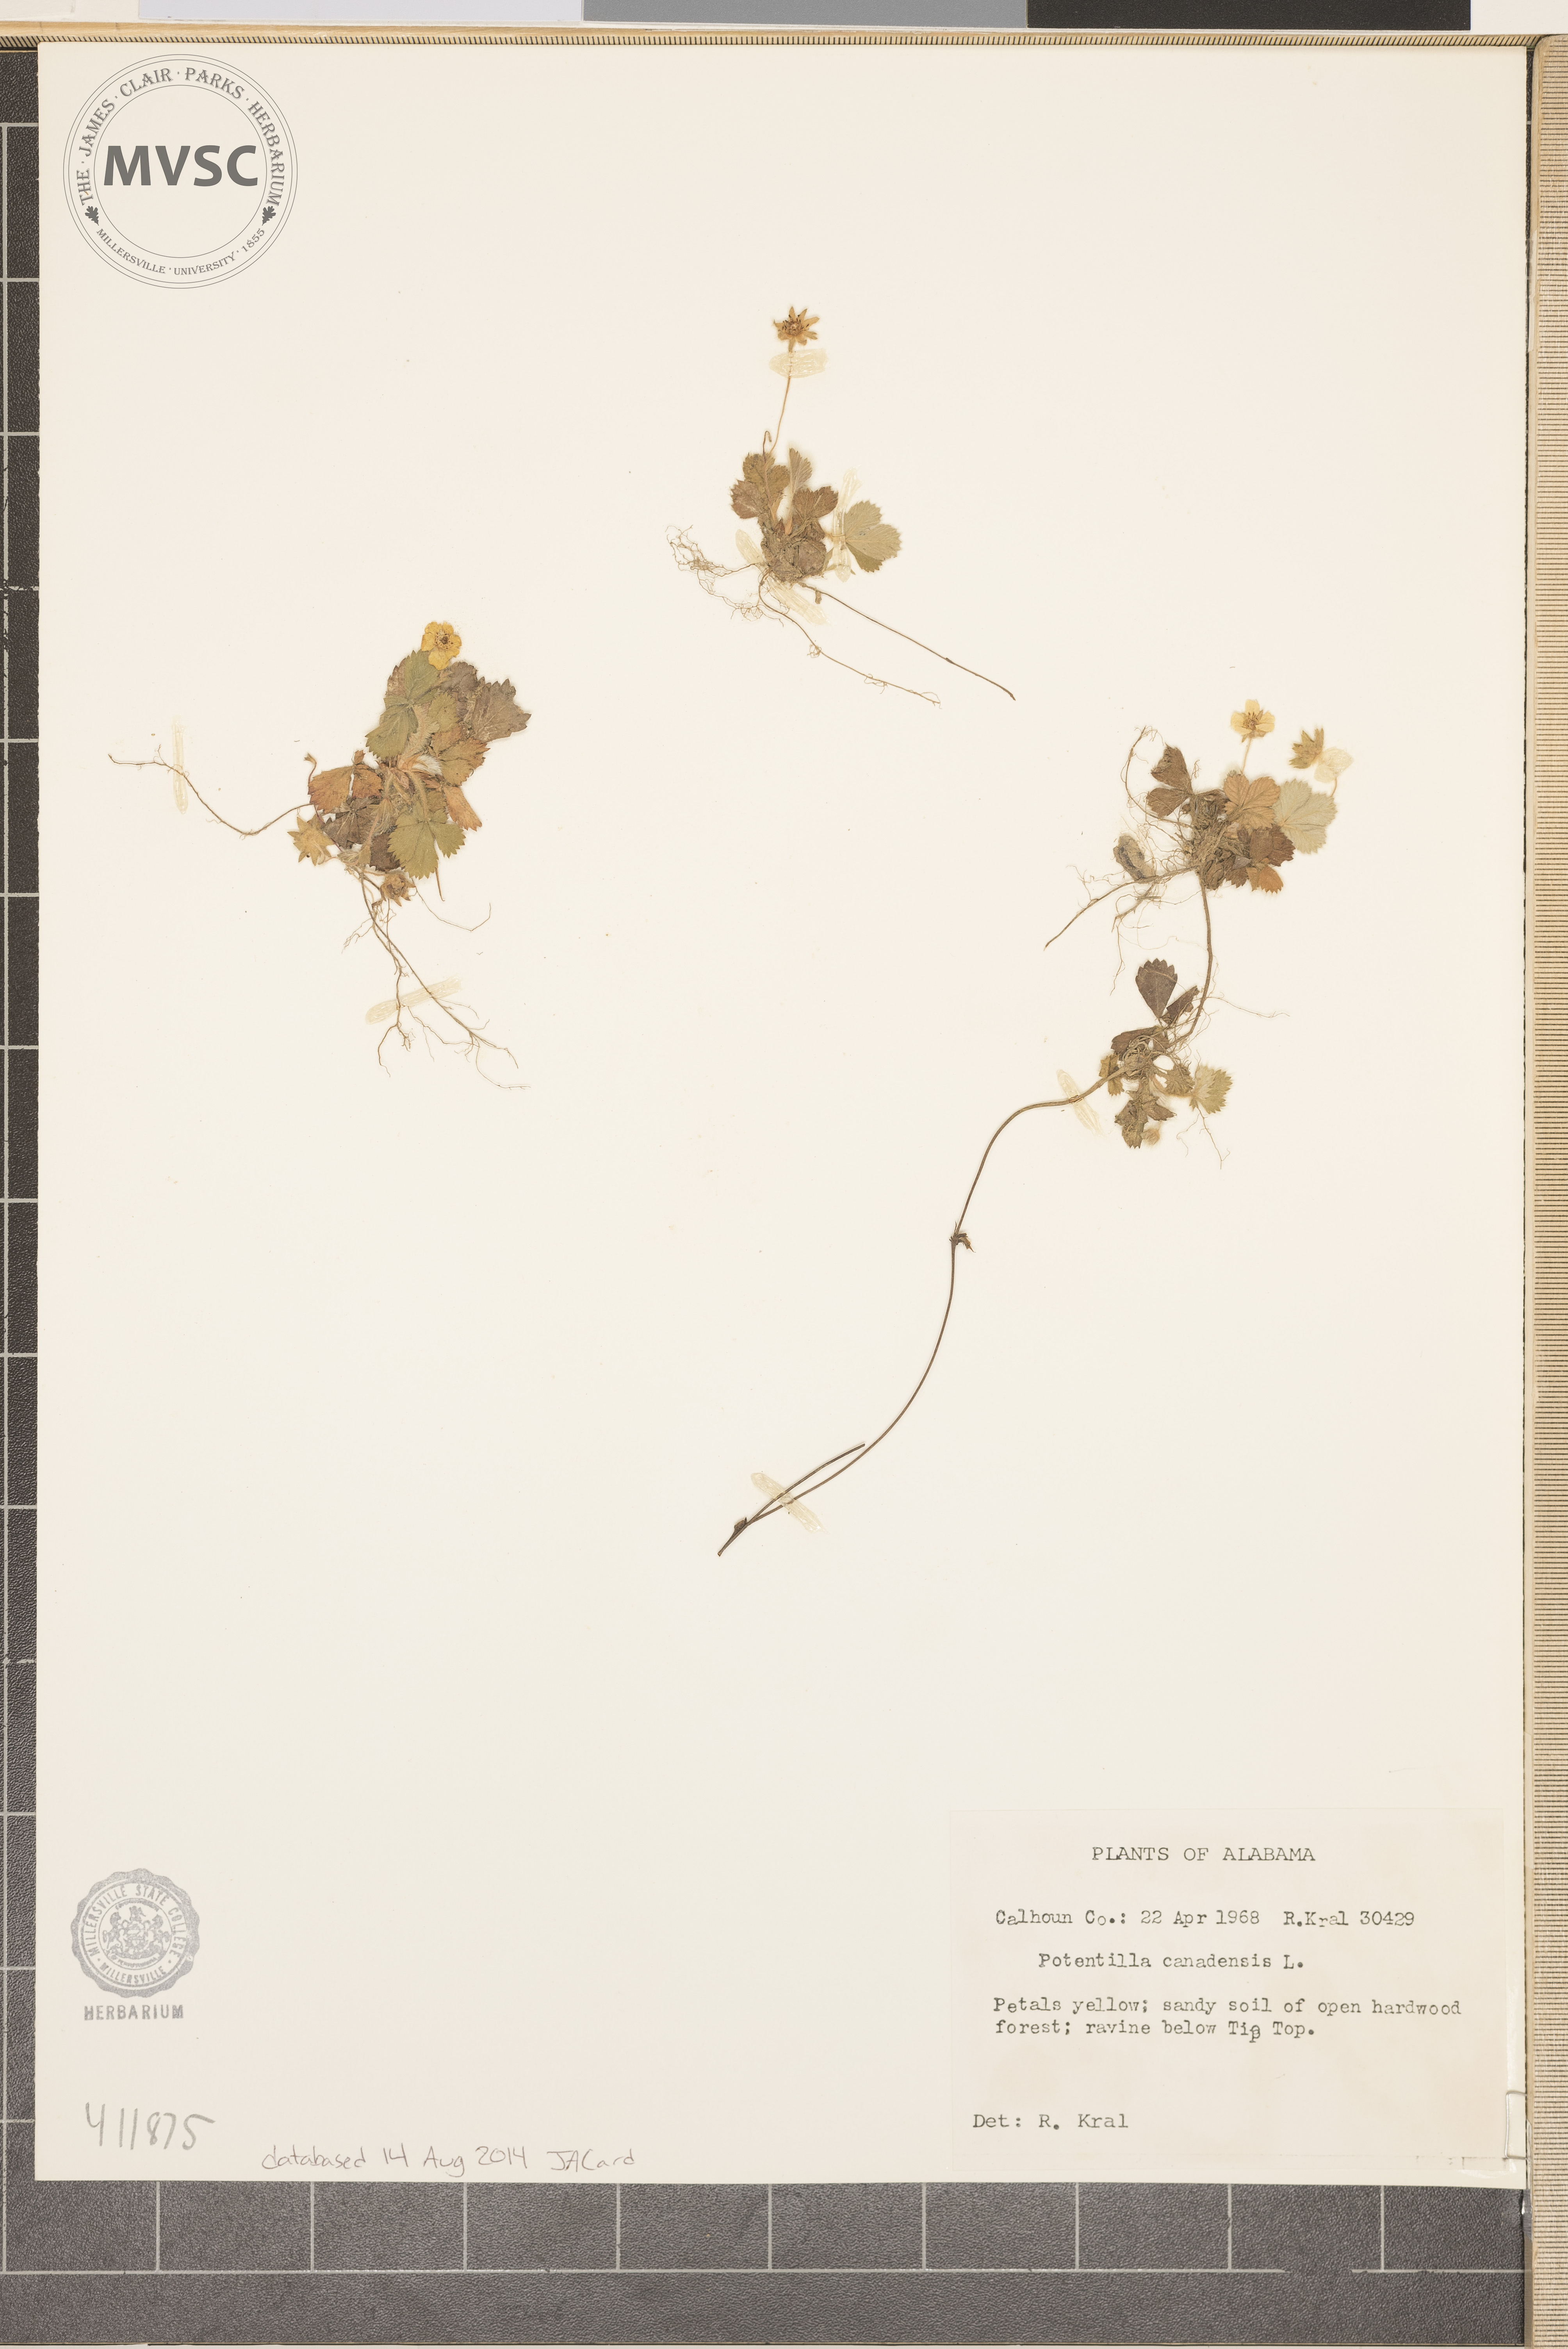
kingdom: Plantae
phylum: Tracheophyta
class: Magnoliopsida
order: Rosales
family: Rosaceae
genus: Potentilla
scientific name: Potentilla canadensis
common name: Canada cinquefoil
